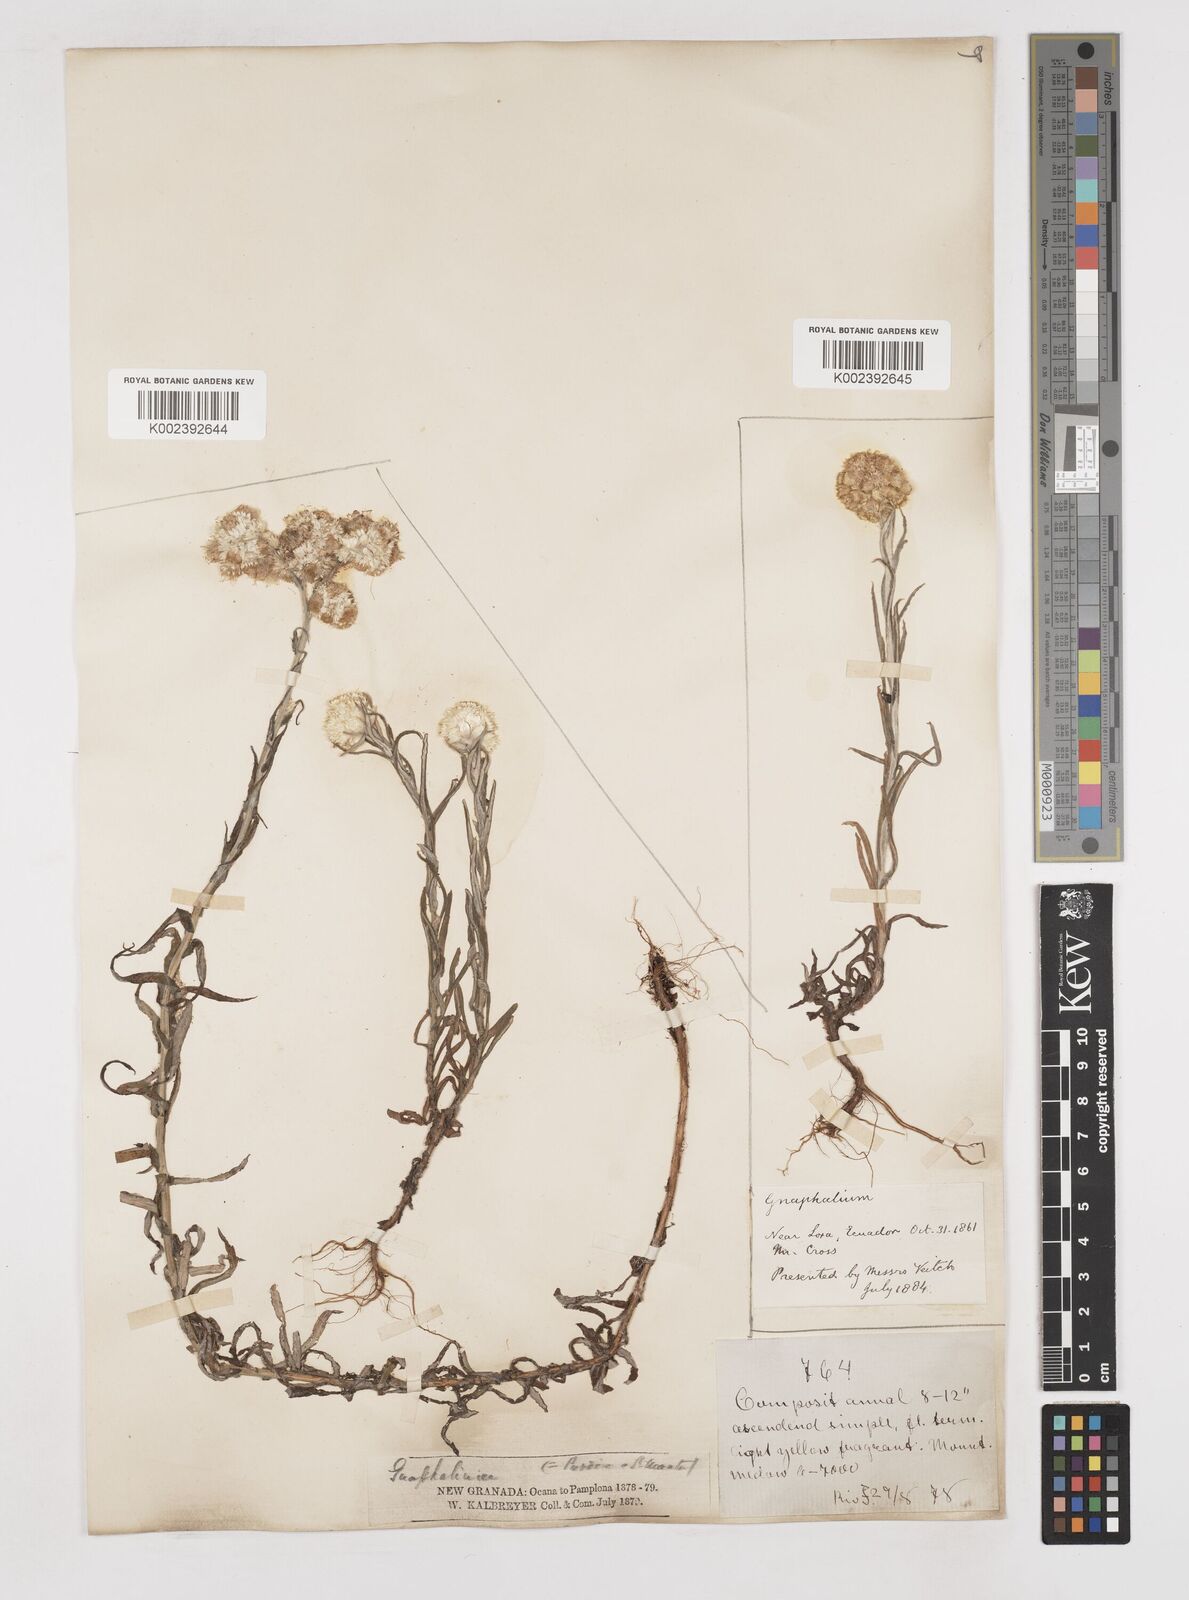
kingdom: Plantae
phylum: Tracheophyta
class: Magnoliopsida
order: Asterales
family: Asteraceae
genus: Gnaphalium
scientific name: Gnaphalium
